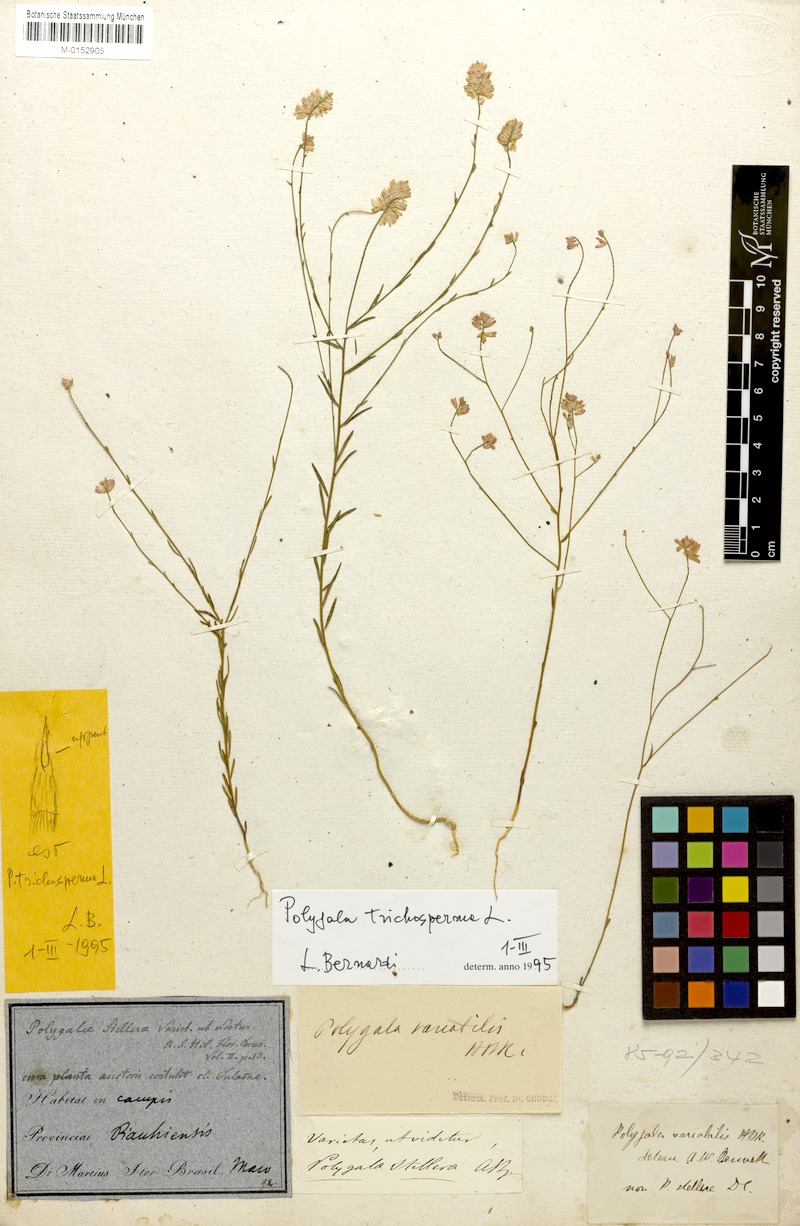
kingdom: Plantae
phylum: Tracheophyta
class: Magnoliopsida
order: Fabales
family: Polygalaceae
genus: Polygala
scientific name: Polygala trichosperma
